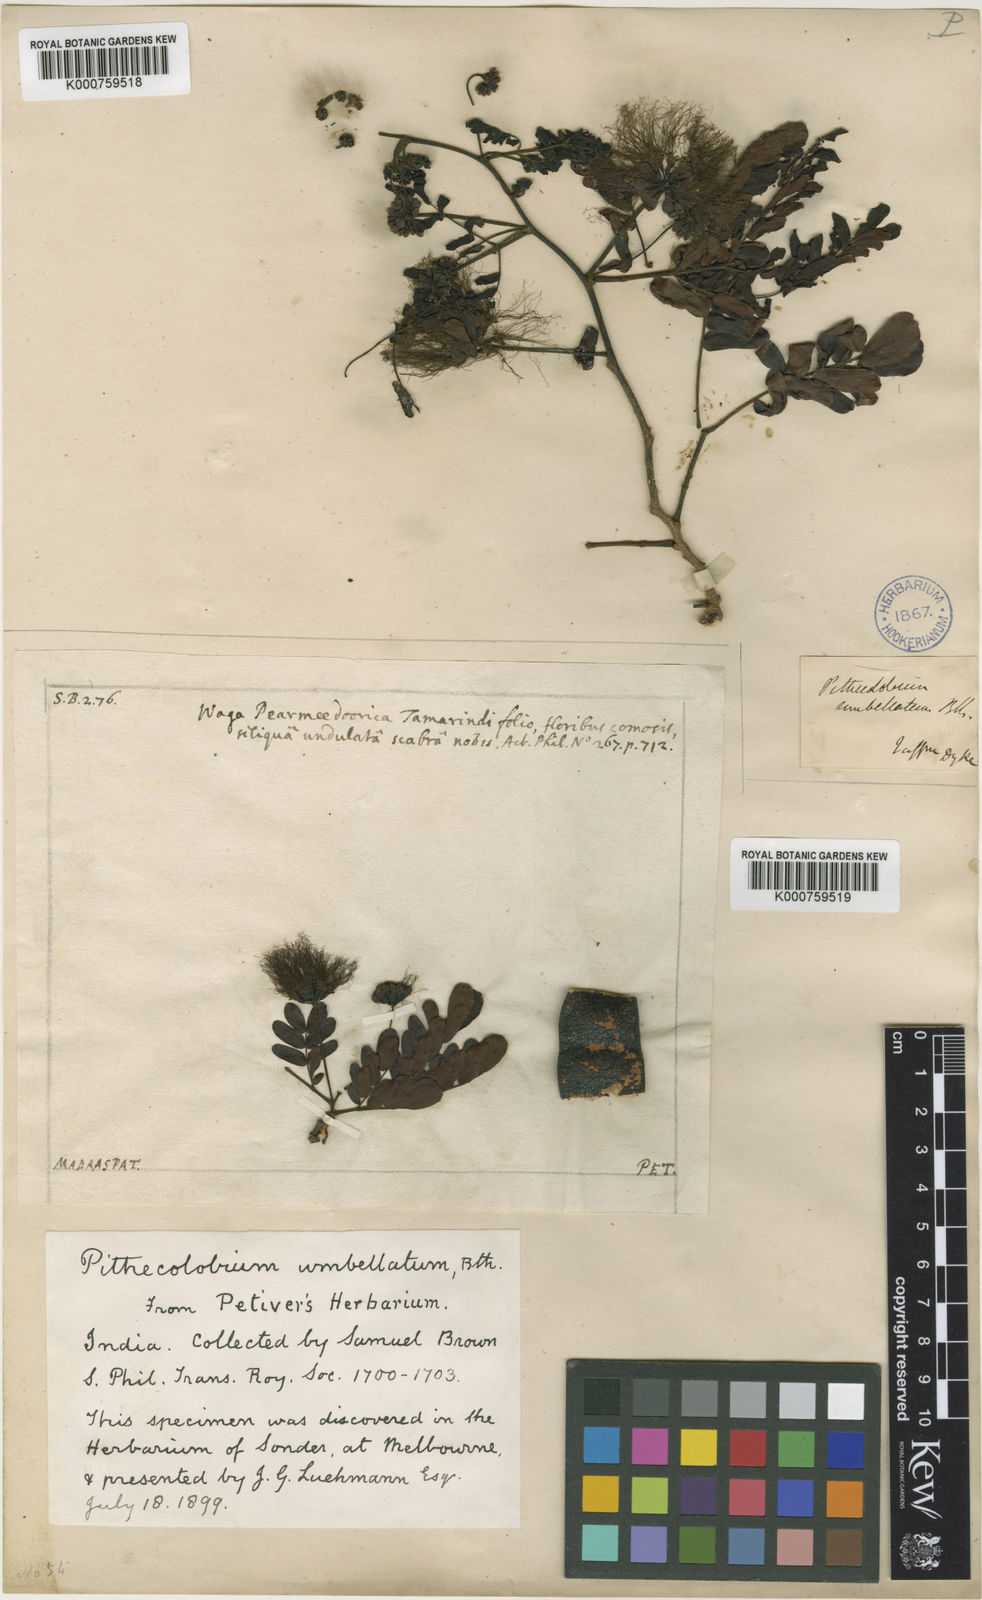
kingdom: Plantae
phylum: Tracheophyta
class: Magnoliopsida
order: Fabales
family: Fabaceae
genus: Cathormion
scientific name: Cathormion umbellatum
